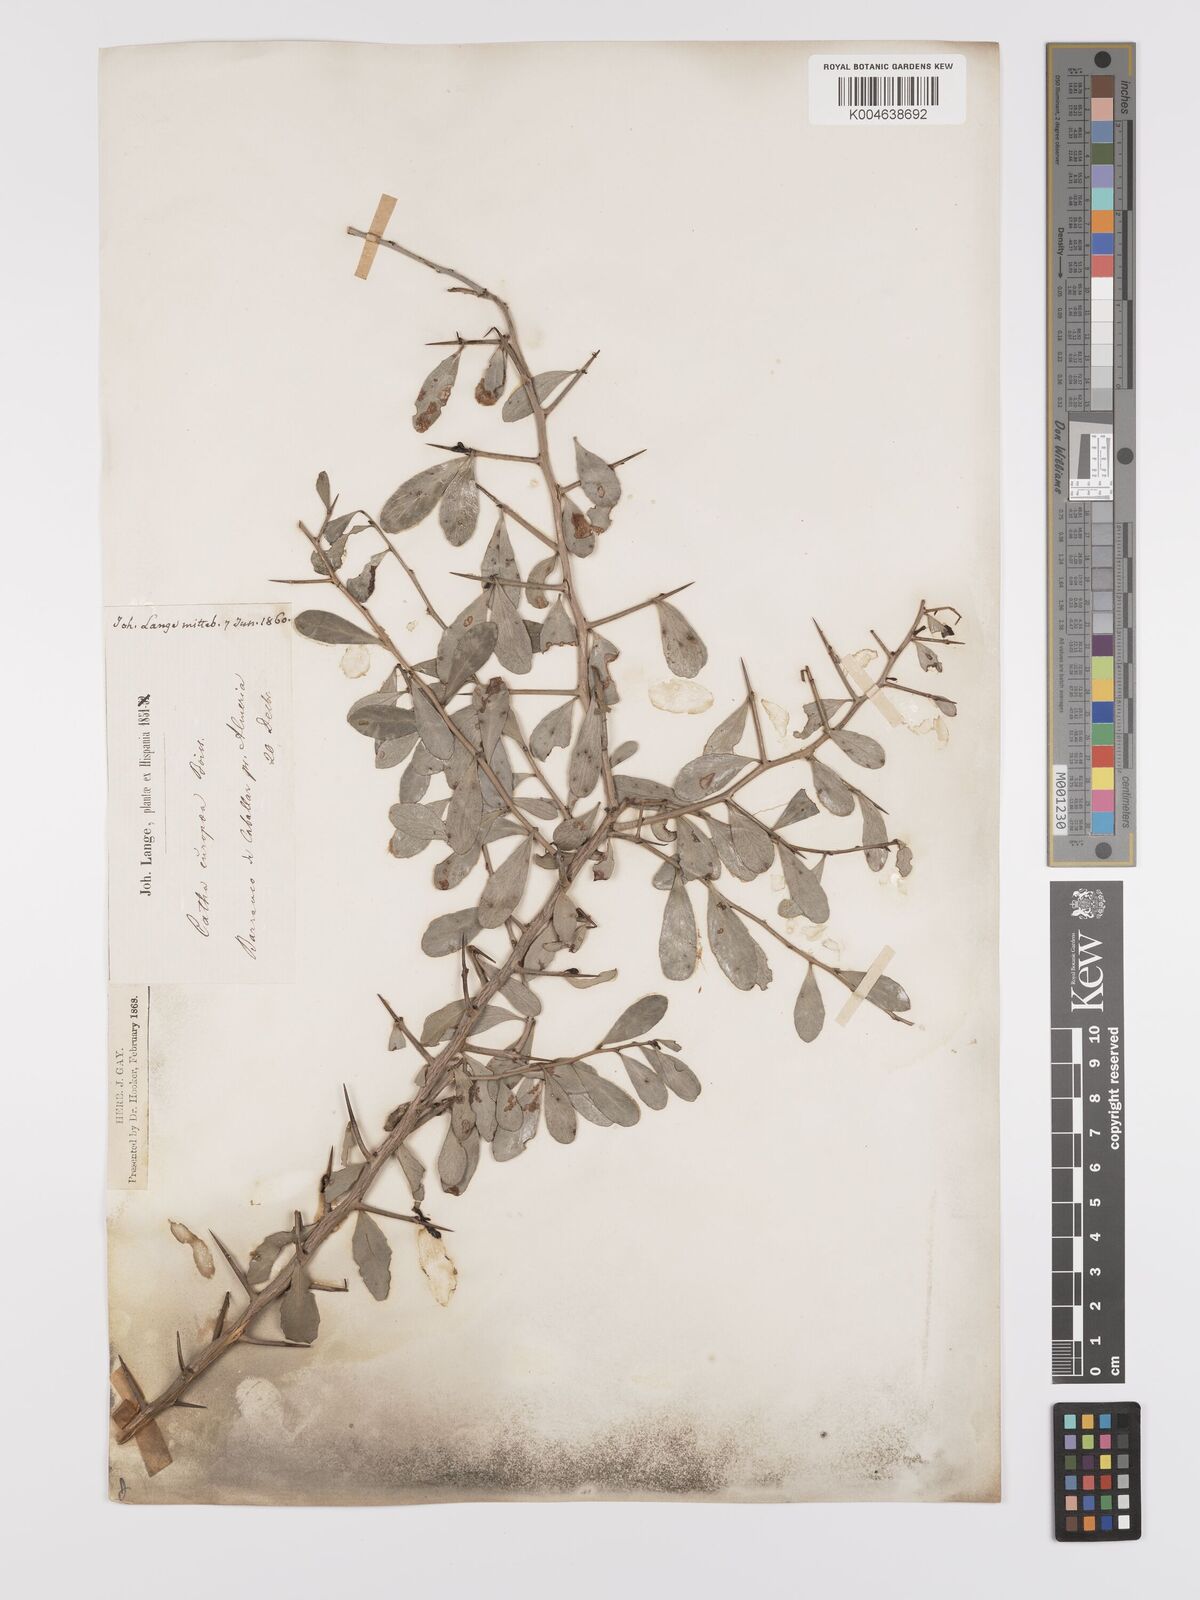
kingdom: Plantae
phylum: Tracheophyta
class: Magnoliopsida
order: Celastrales
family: Celastraceae
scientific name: Celastraceae
